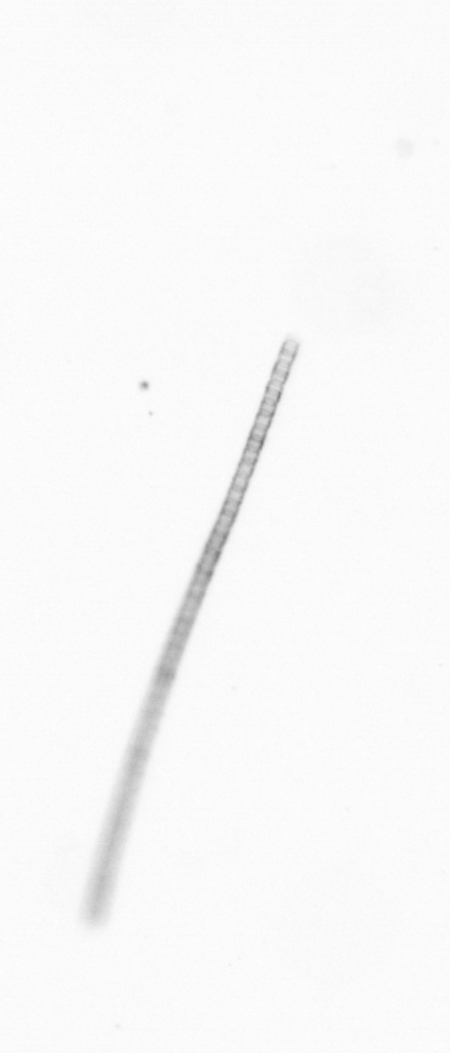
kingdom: Chromista
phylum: Ochrophyta
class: Bacillariophyceae
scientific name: Bacillariophyceae
